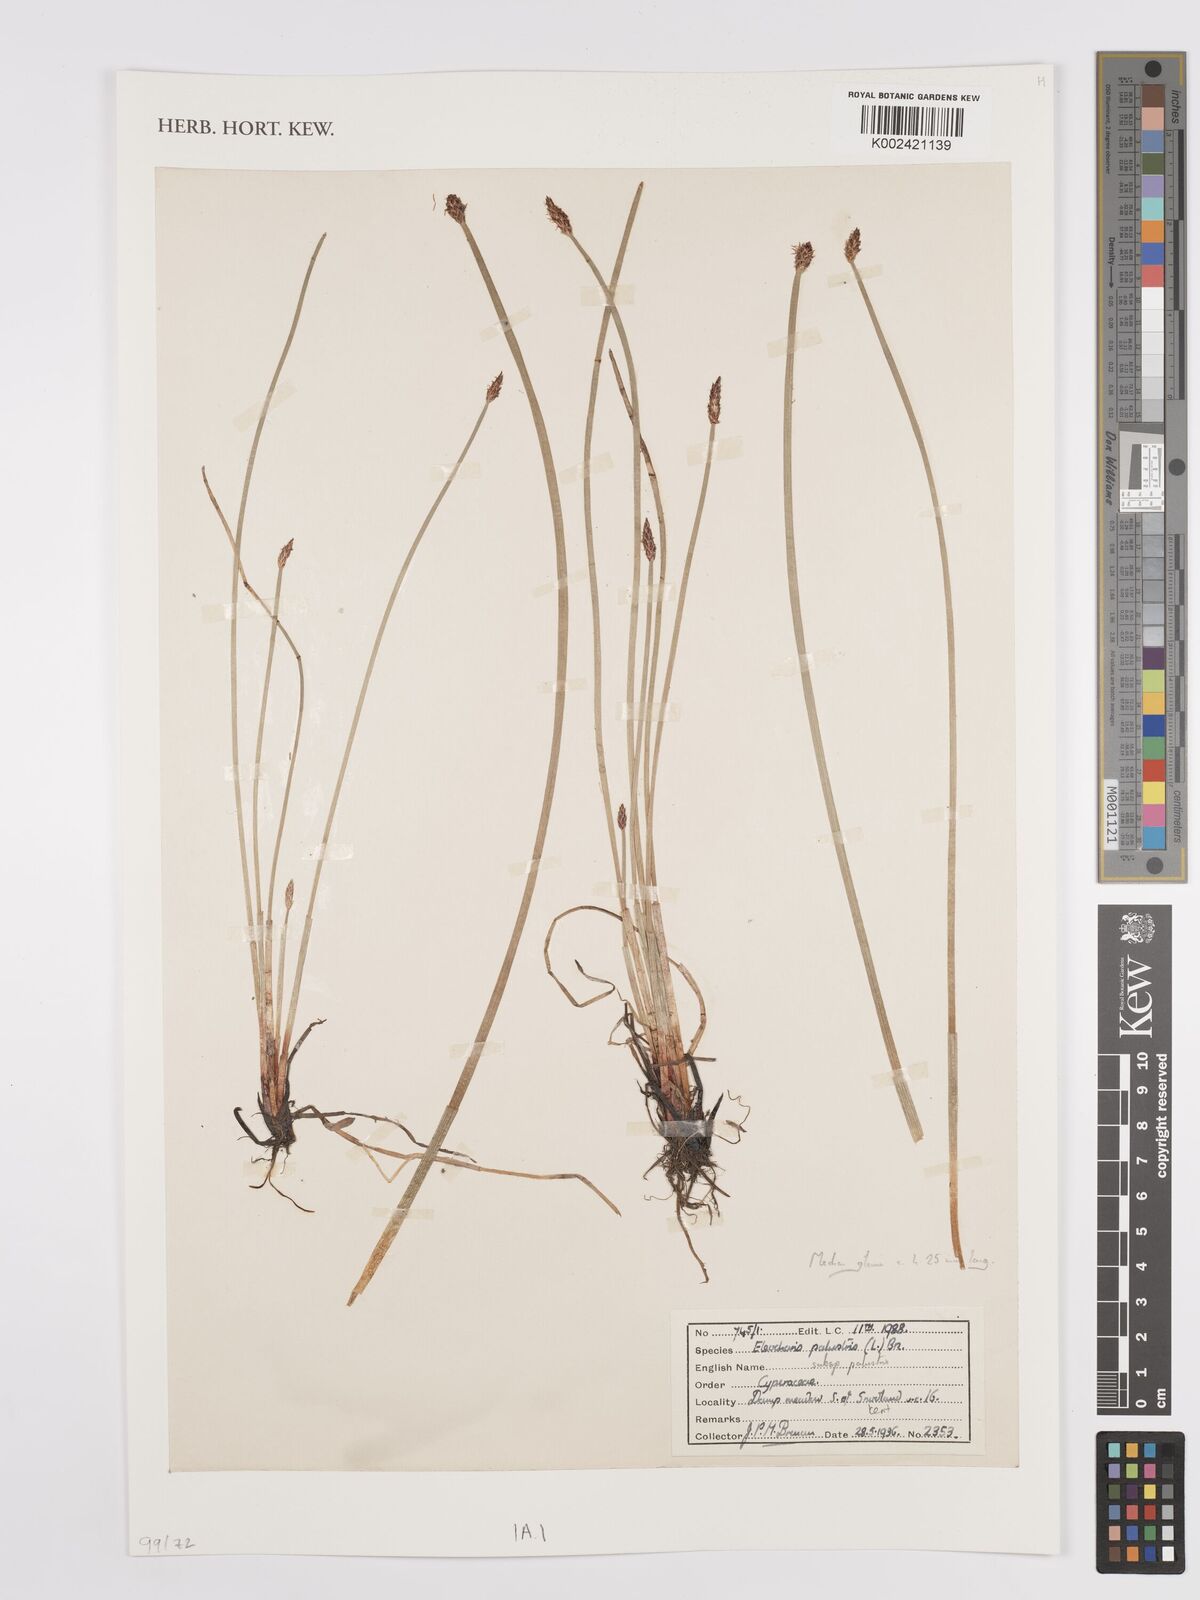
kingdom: Plantae
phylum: Tracheophyta
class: Liliopsida
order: Poales
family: Cyperaceae
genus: Eleocharis
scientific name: Eleocharis palustris
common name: Common spike-rush
